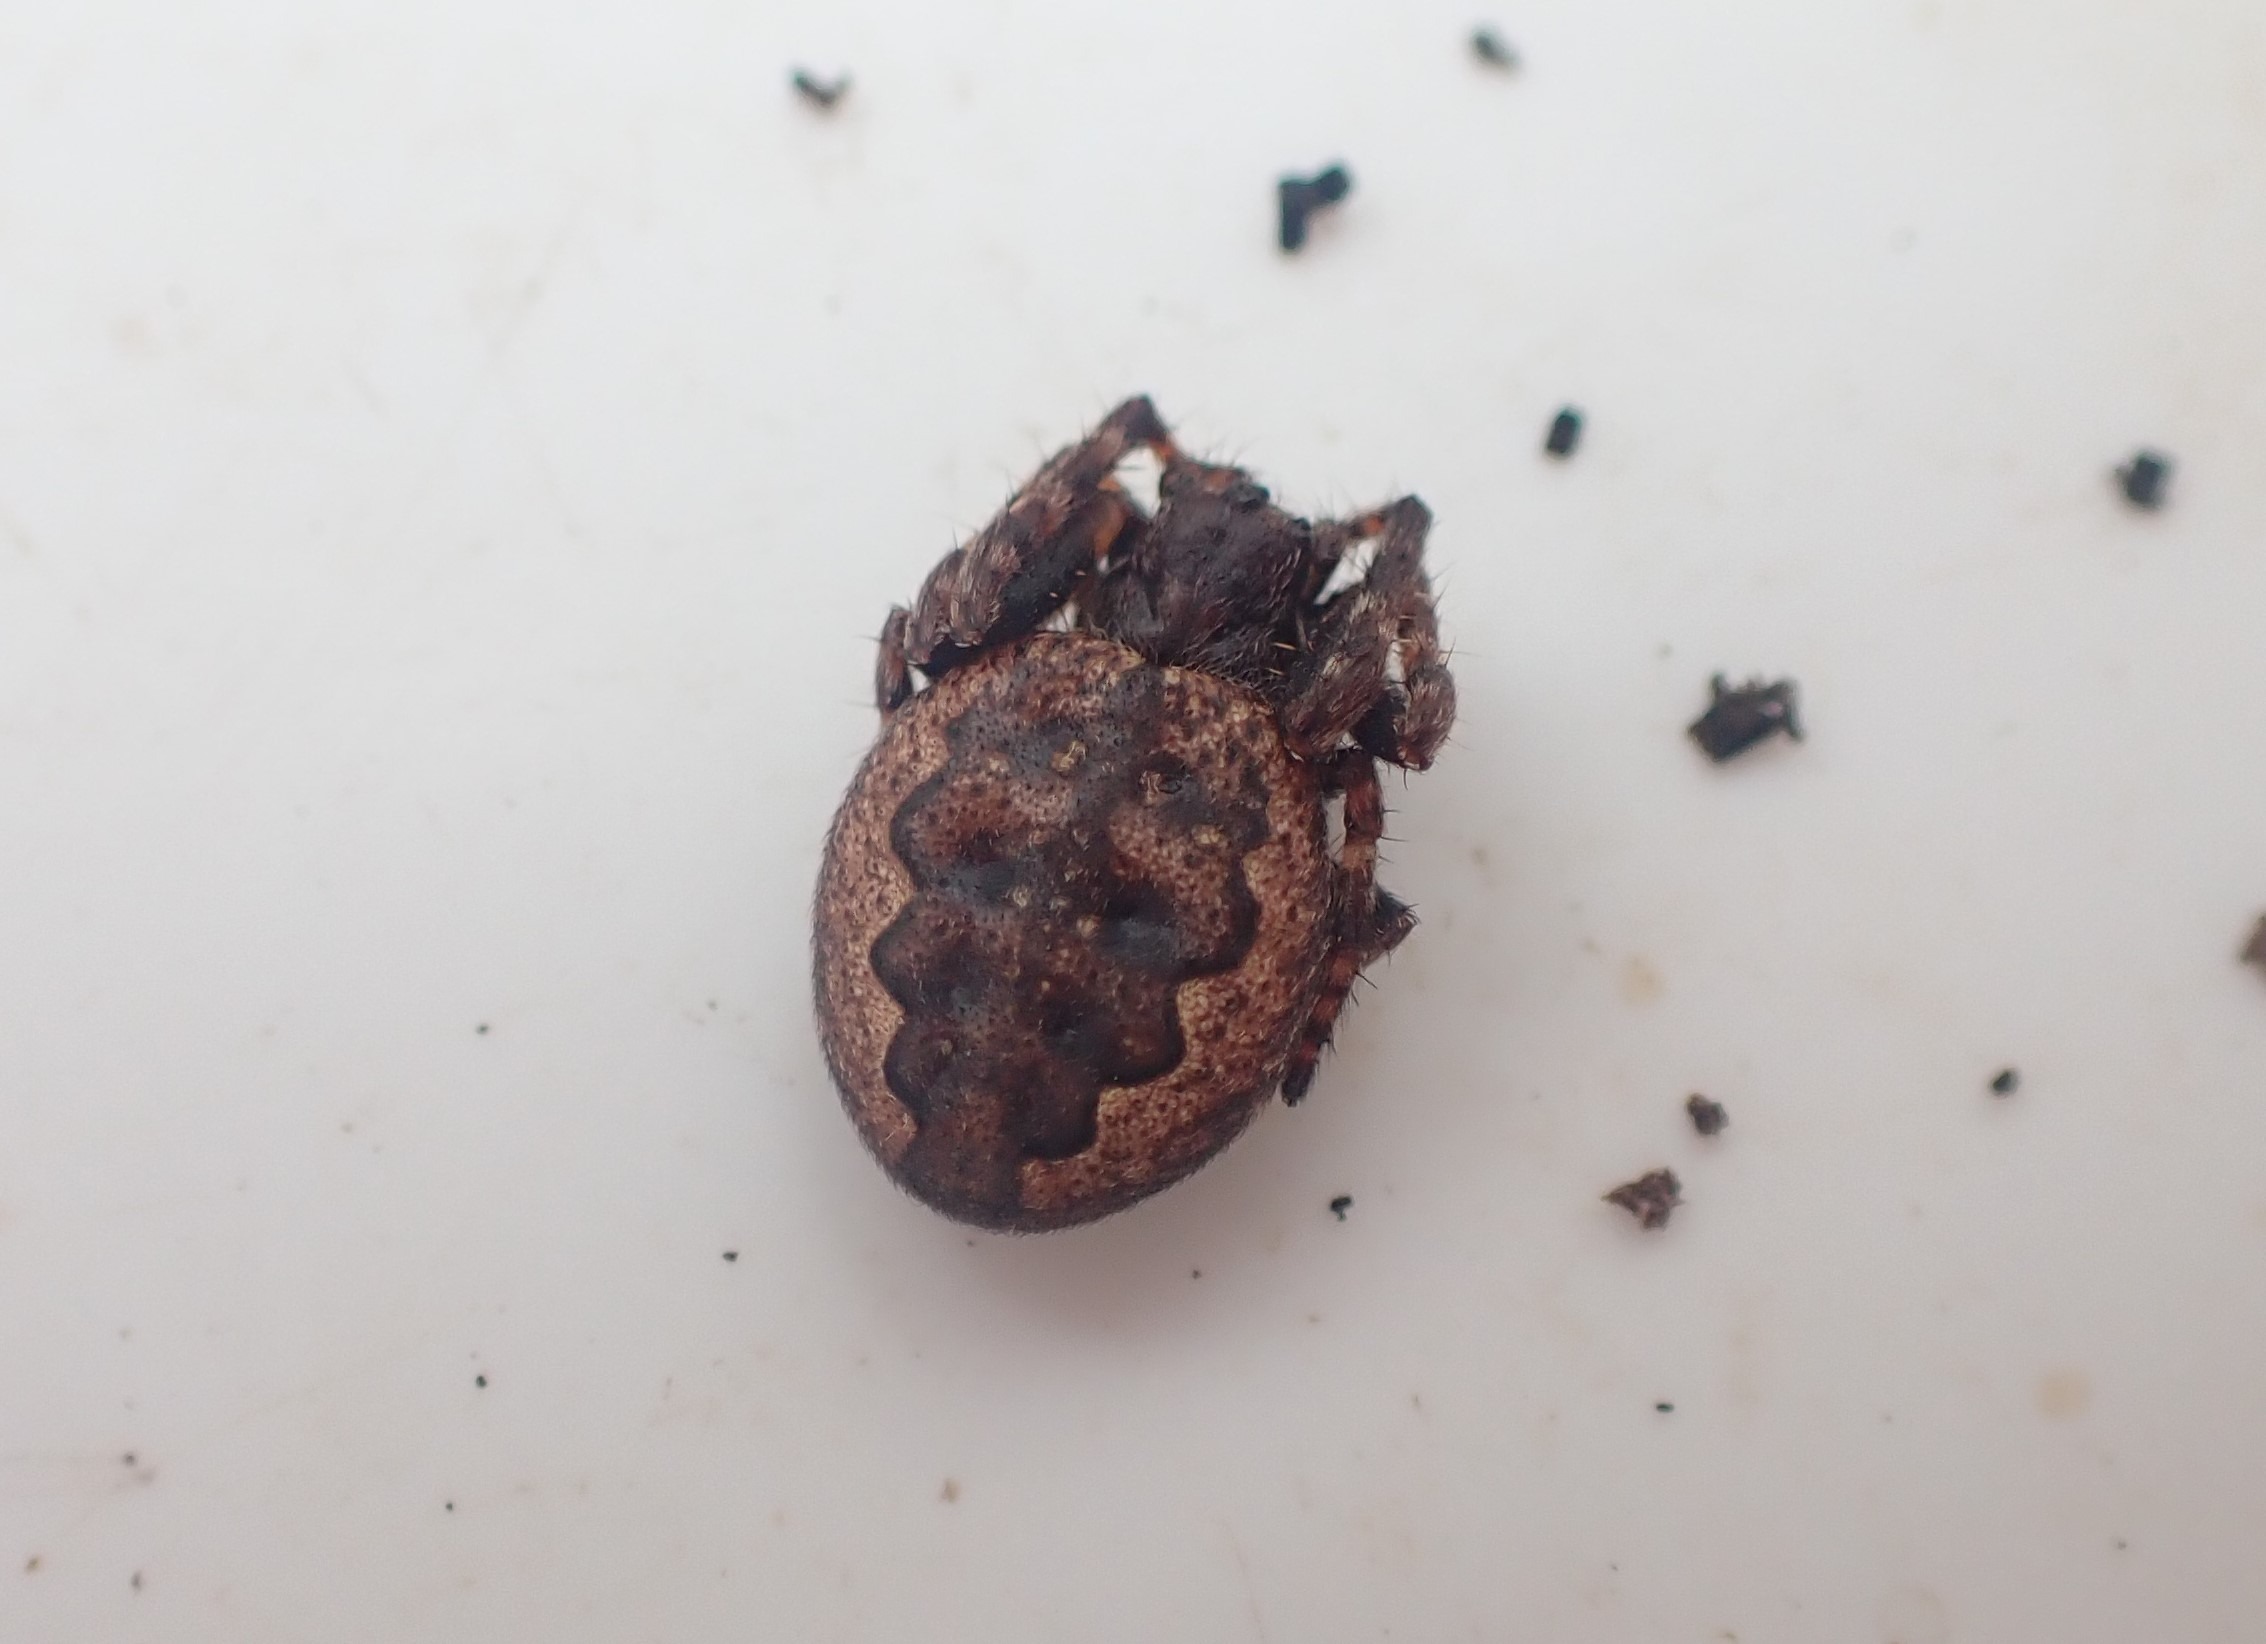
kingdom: Animalia
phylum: Arthropoda
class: Arachnida
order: Araneae
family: Araneidae
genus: Nuctenea
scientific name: Nuctenea umbratica
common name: Flad hjulspinder
